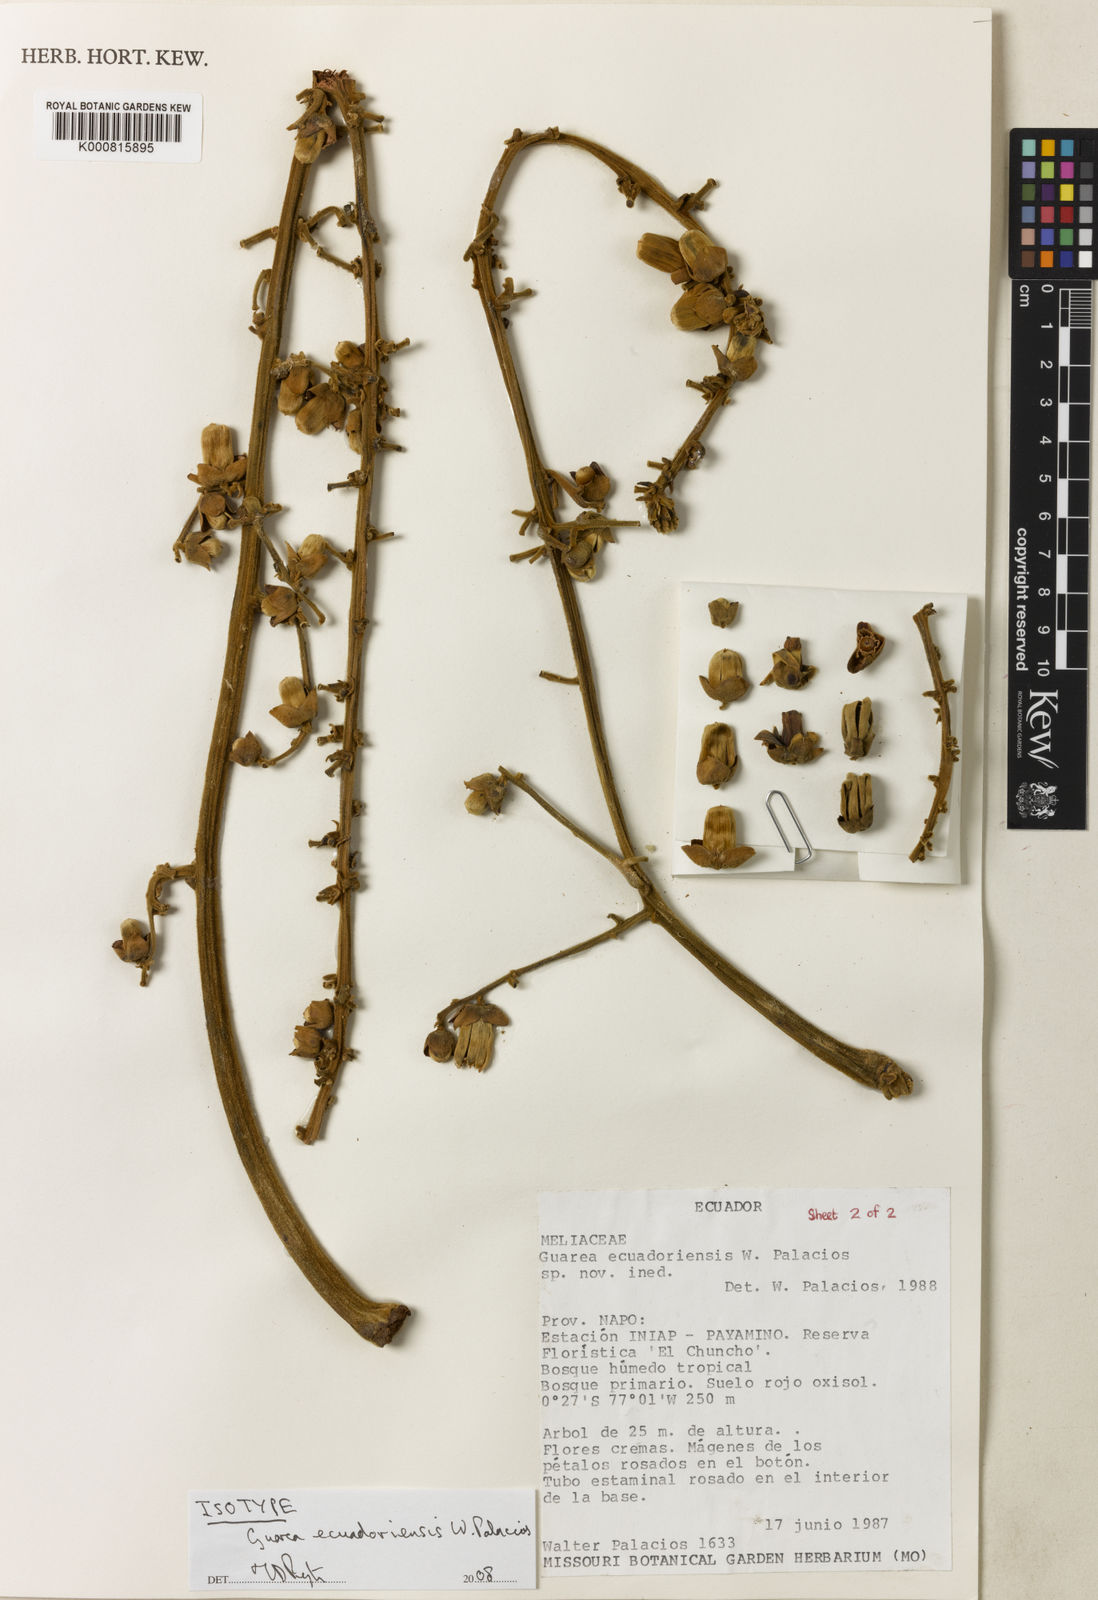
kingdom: Plantae
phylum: Tracheophyta
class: Magnoliopsida
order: Sapindales
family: Meliaceae
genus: Guarea
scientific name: Guarea ecuadoriensis
